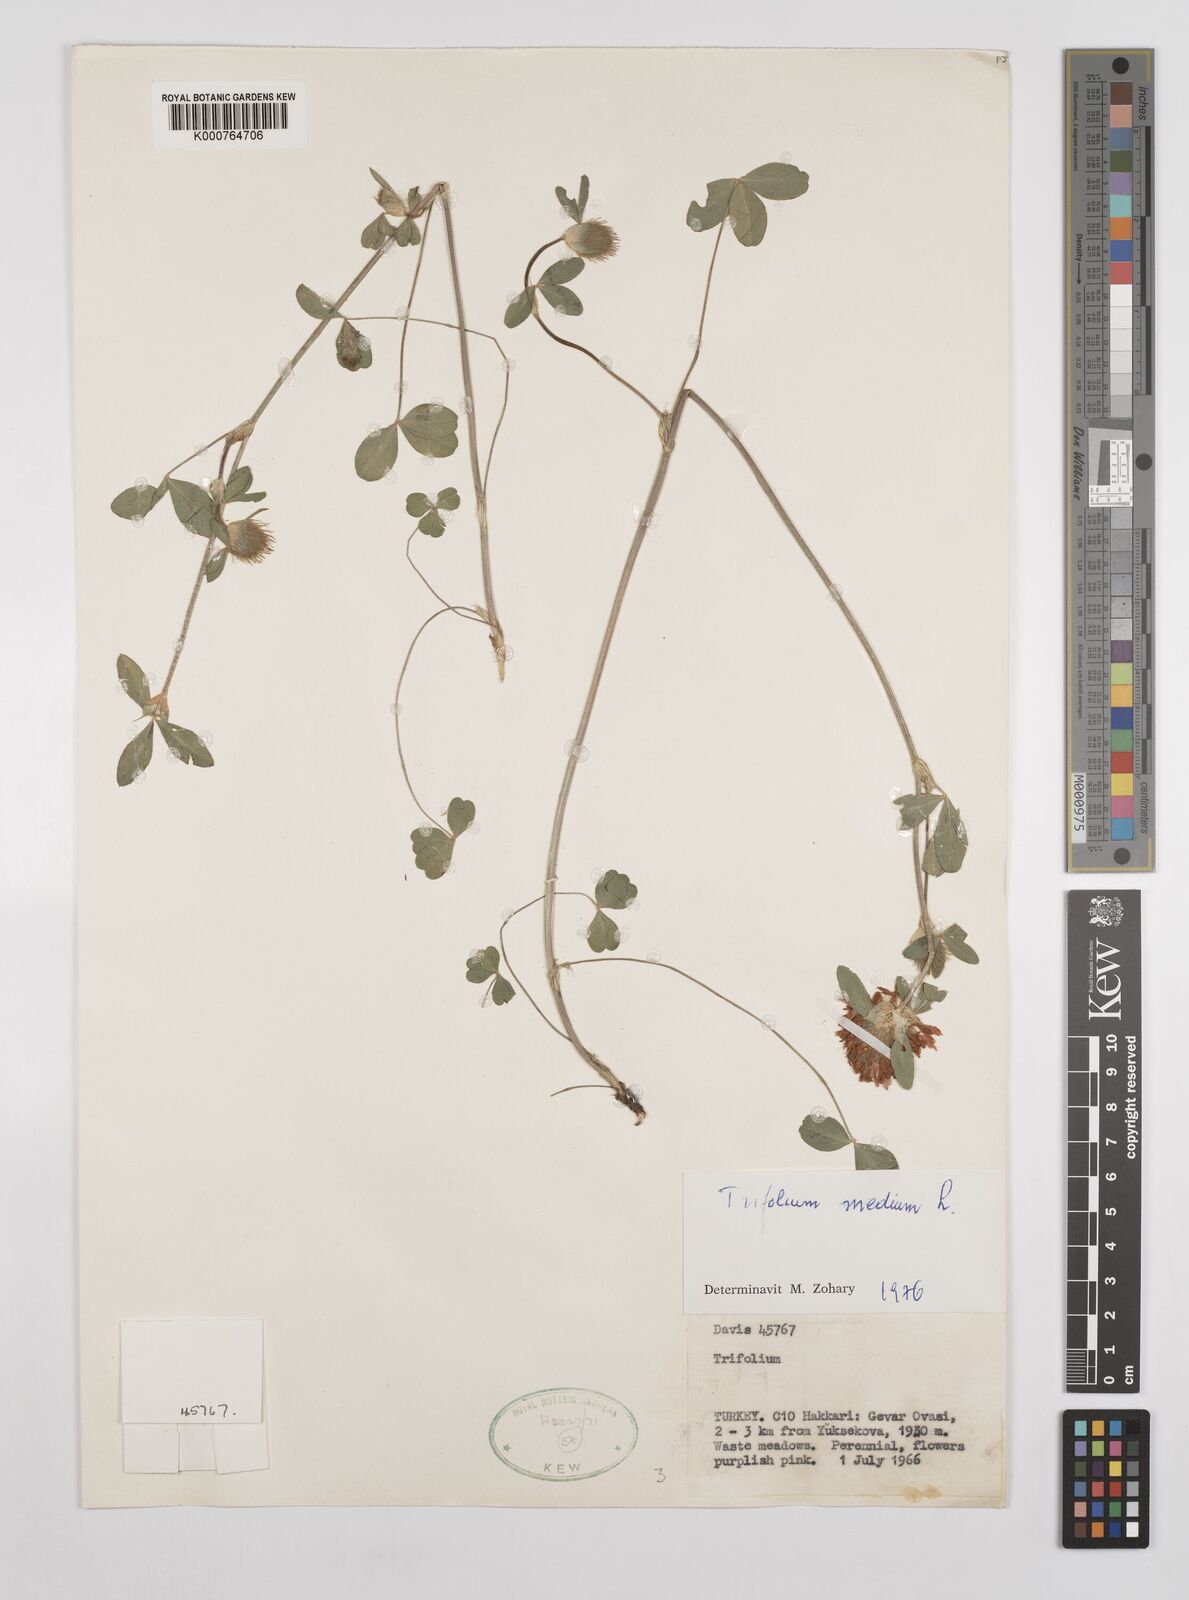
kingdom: Plantae
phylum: Tracheophyta
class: Magnoliopsida
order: Fabales
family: Fabaceae
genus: Trifolium
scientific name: Trifolium medium
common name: Zigzag clover
